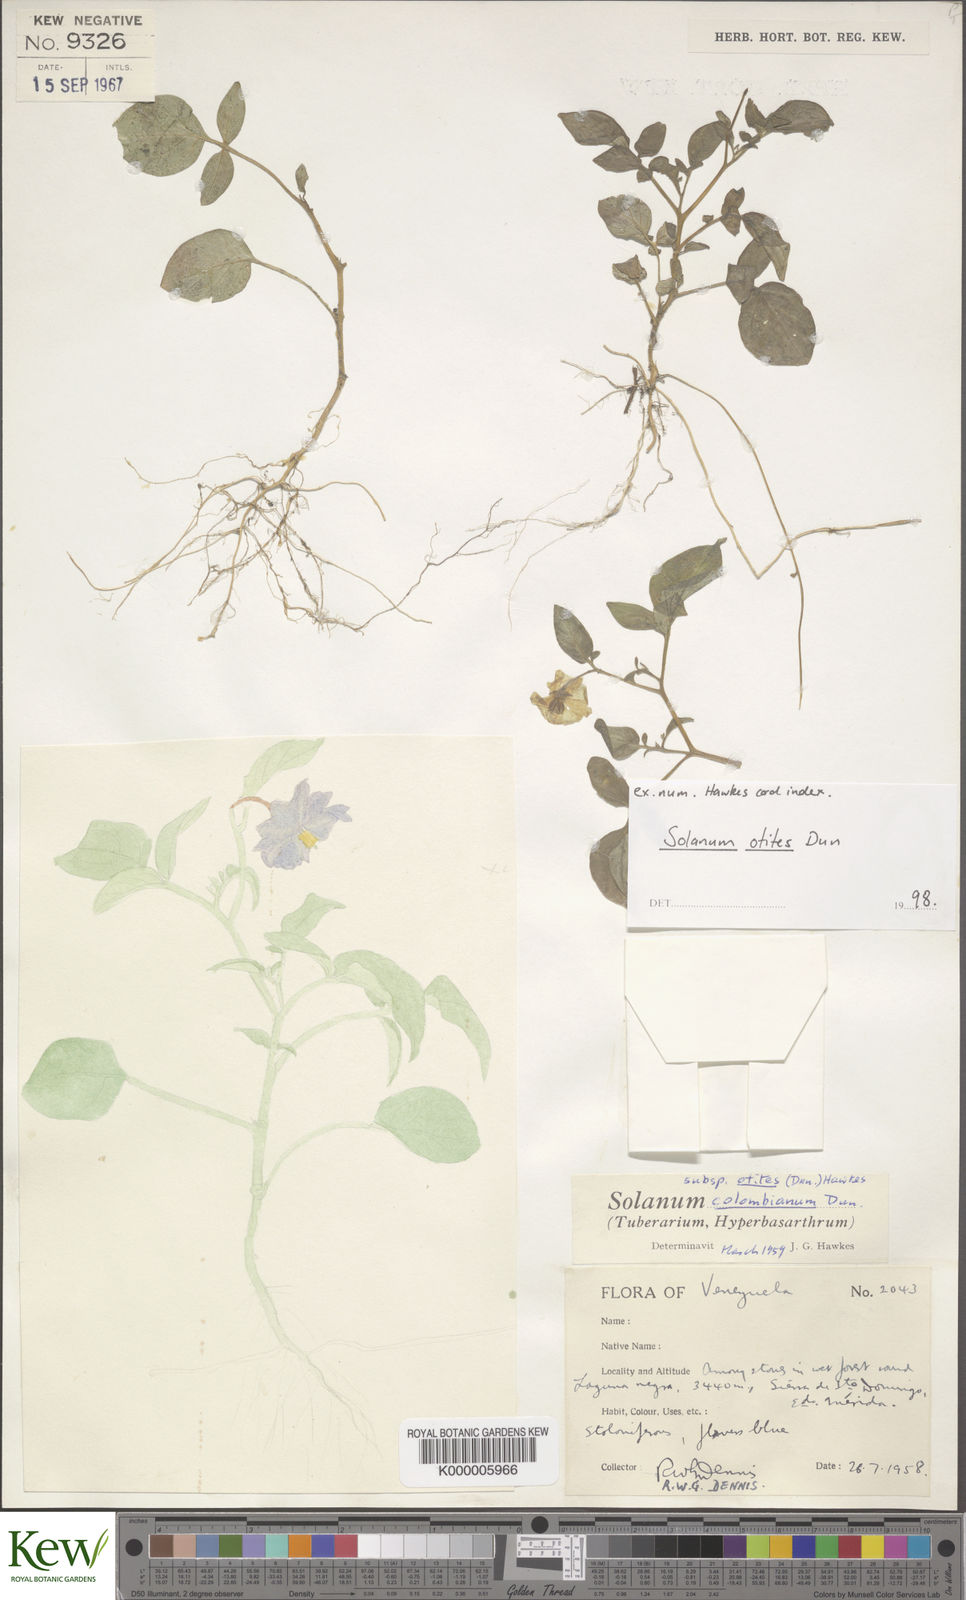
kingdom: Plantae
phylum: Tracheophyta
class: Magnoliopsida
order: Solanales
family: Solanaceae
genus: Solanum
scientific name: Solanum colombianum
